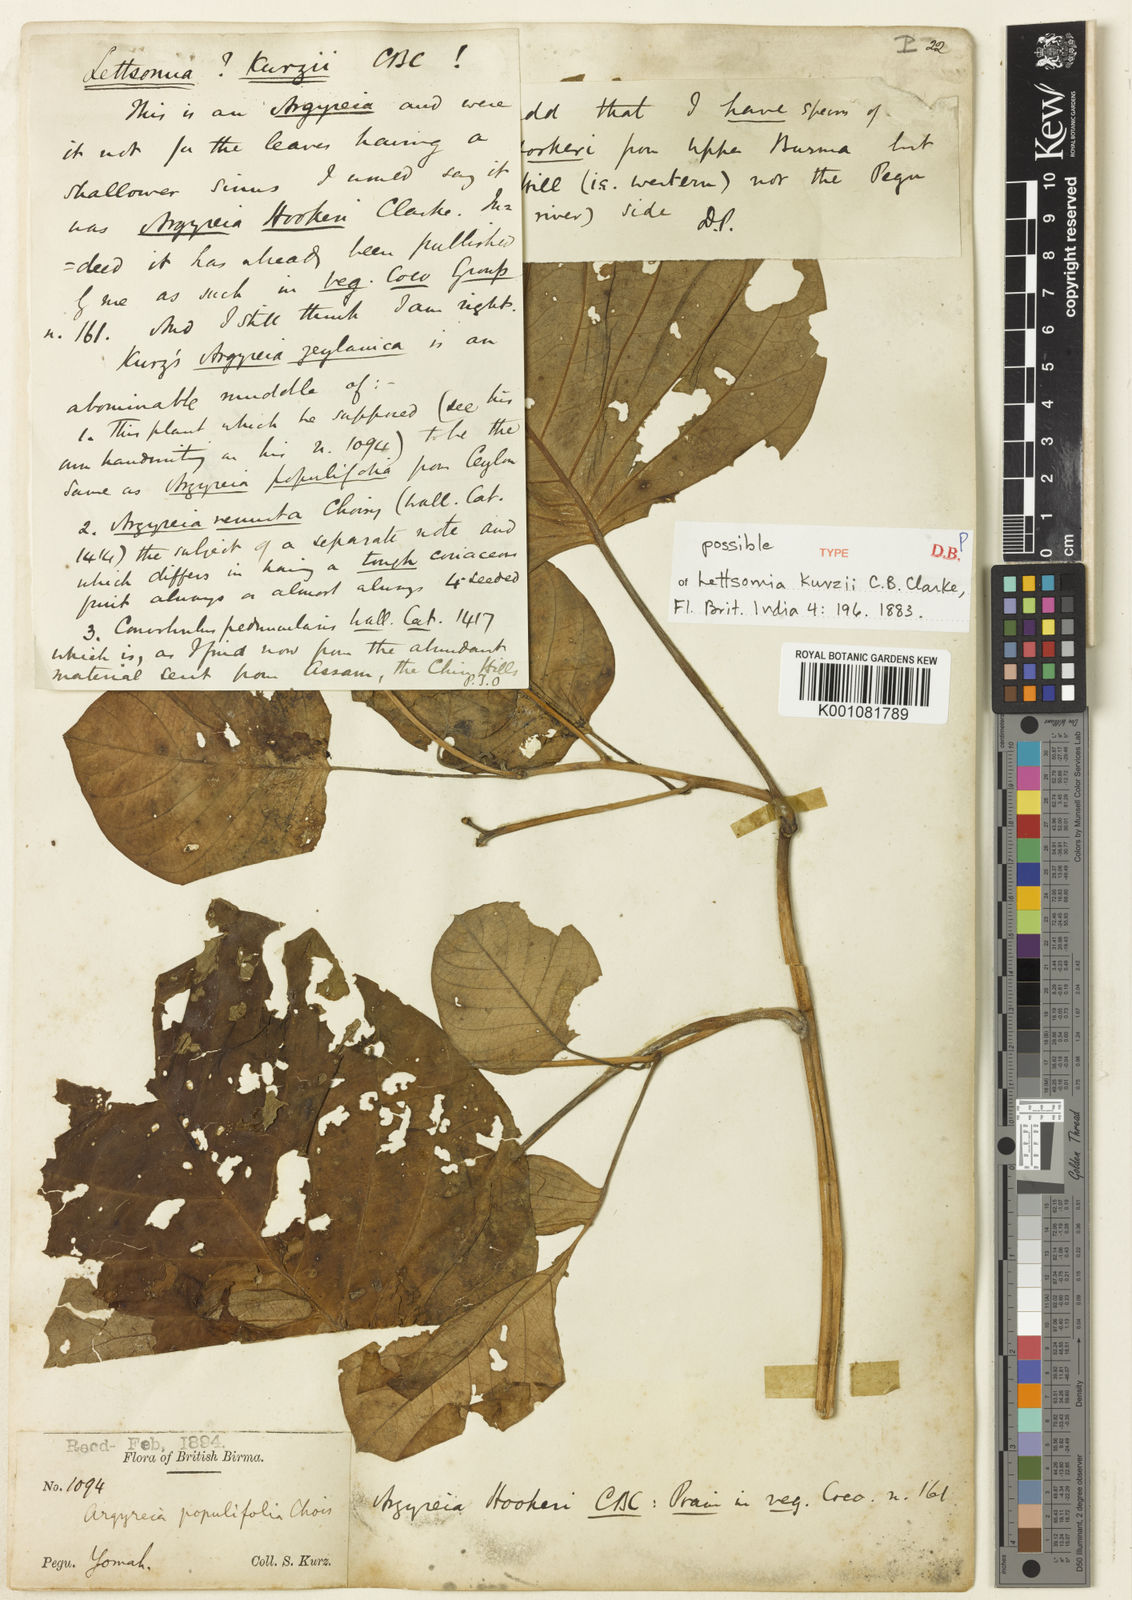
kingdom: Plantae
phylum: Tracheophyta
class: Magnoliopsida
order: Solanales
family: Convolvulaceae
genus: Argyreia
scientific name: Argyreia
